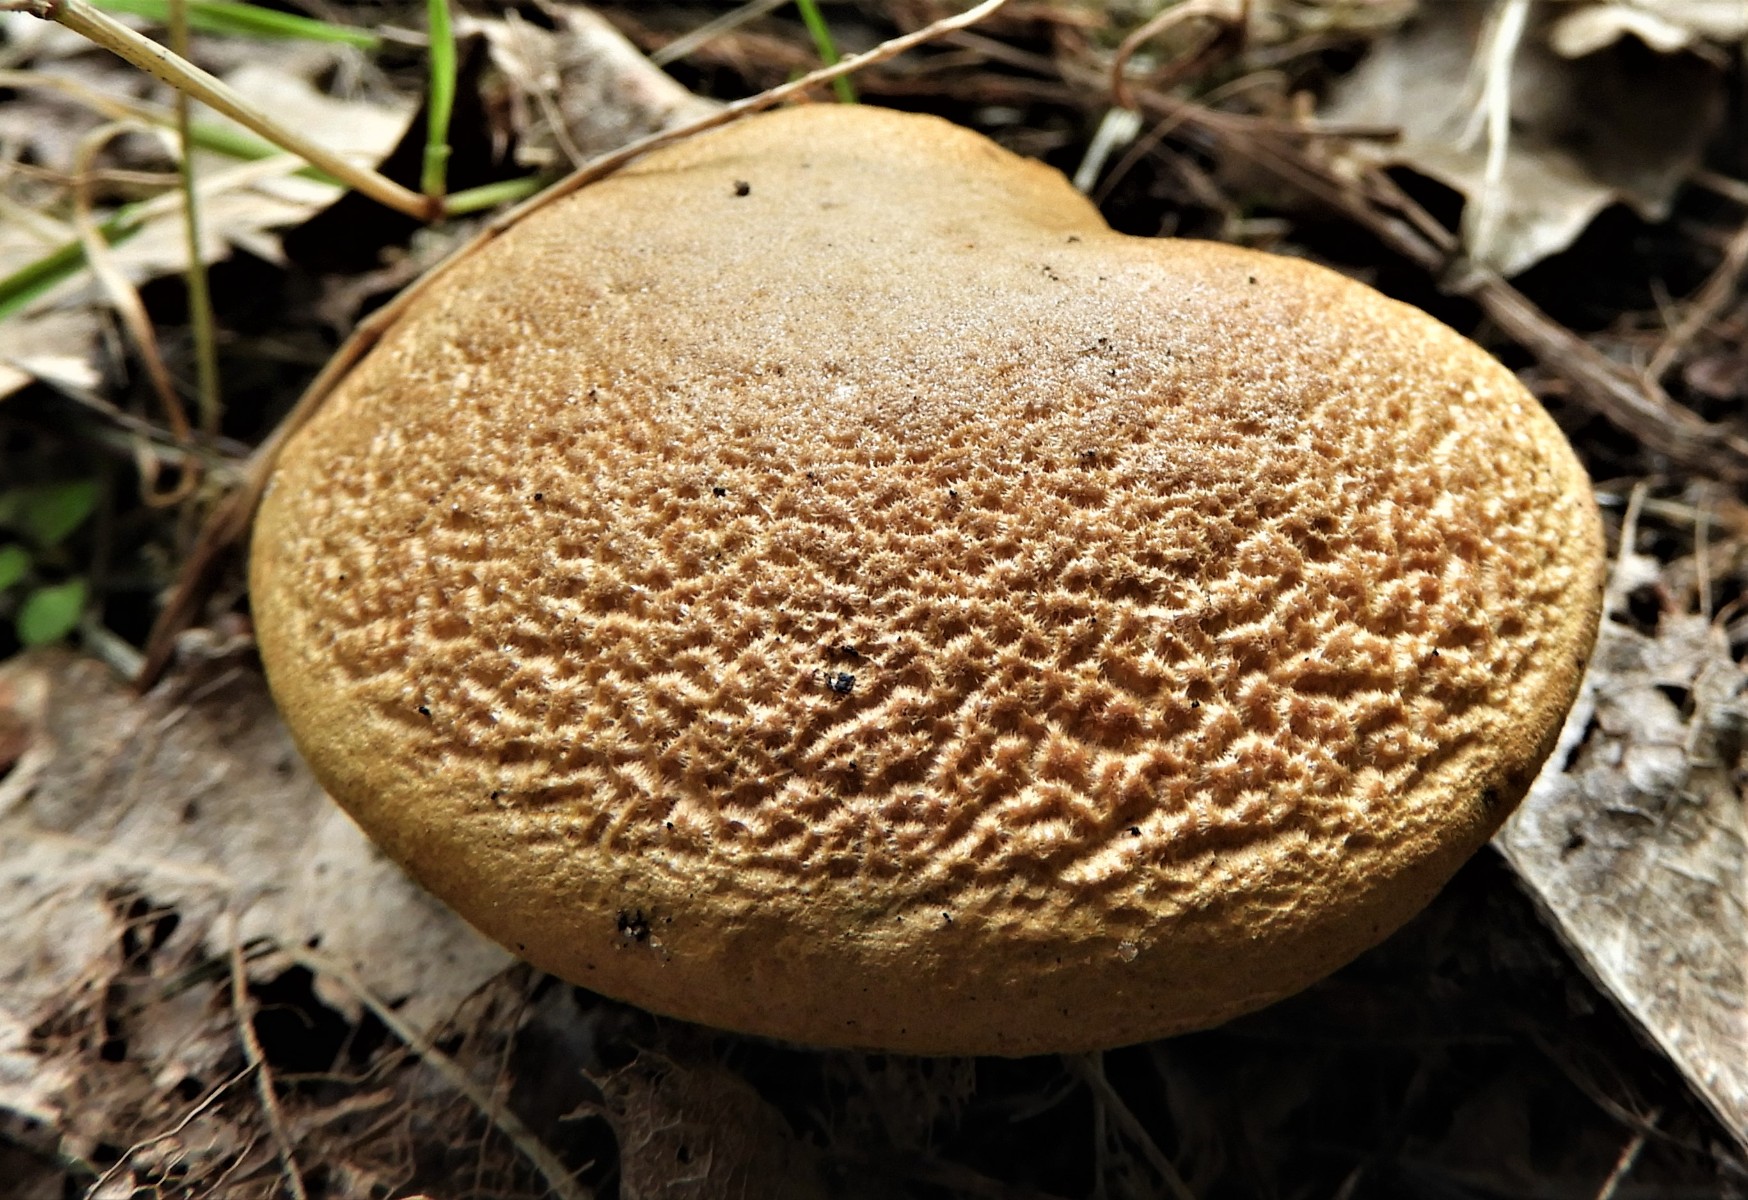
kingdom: Fungi
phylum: Basidiomycota
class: Agaricomycetes
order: Boletales
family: Boletaceae
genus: Hortiboletus
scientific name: Hortiboletus engelii
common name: fersken-rørhat
